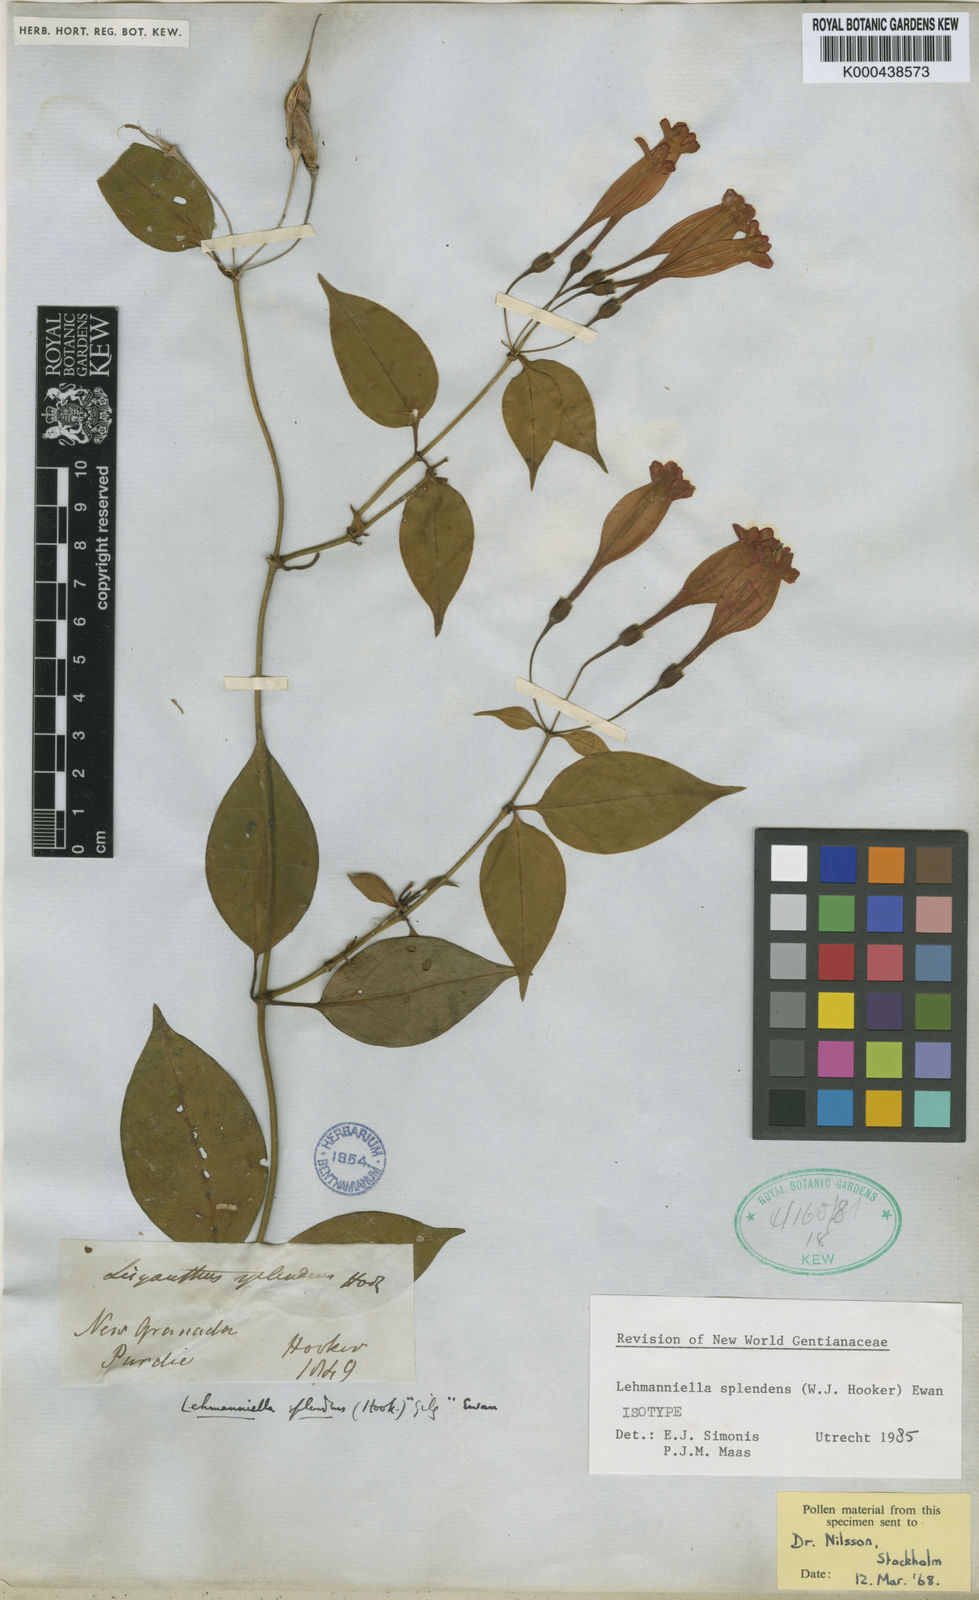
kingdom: Plantae
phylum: Tracheophyta
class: Magnoliopsida
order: Gentianales
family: Gentianaceae
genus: Lehmanniella
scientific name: Lehmanniella splendens
